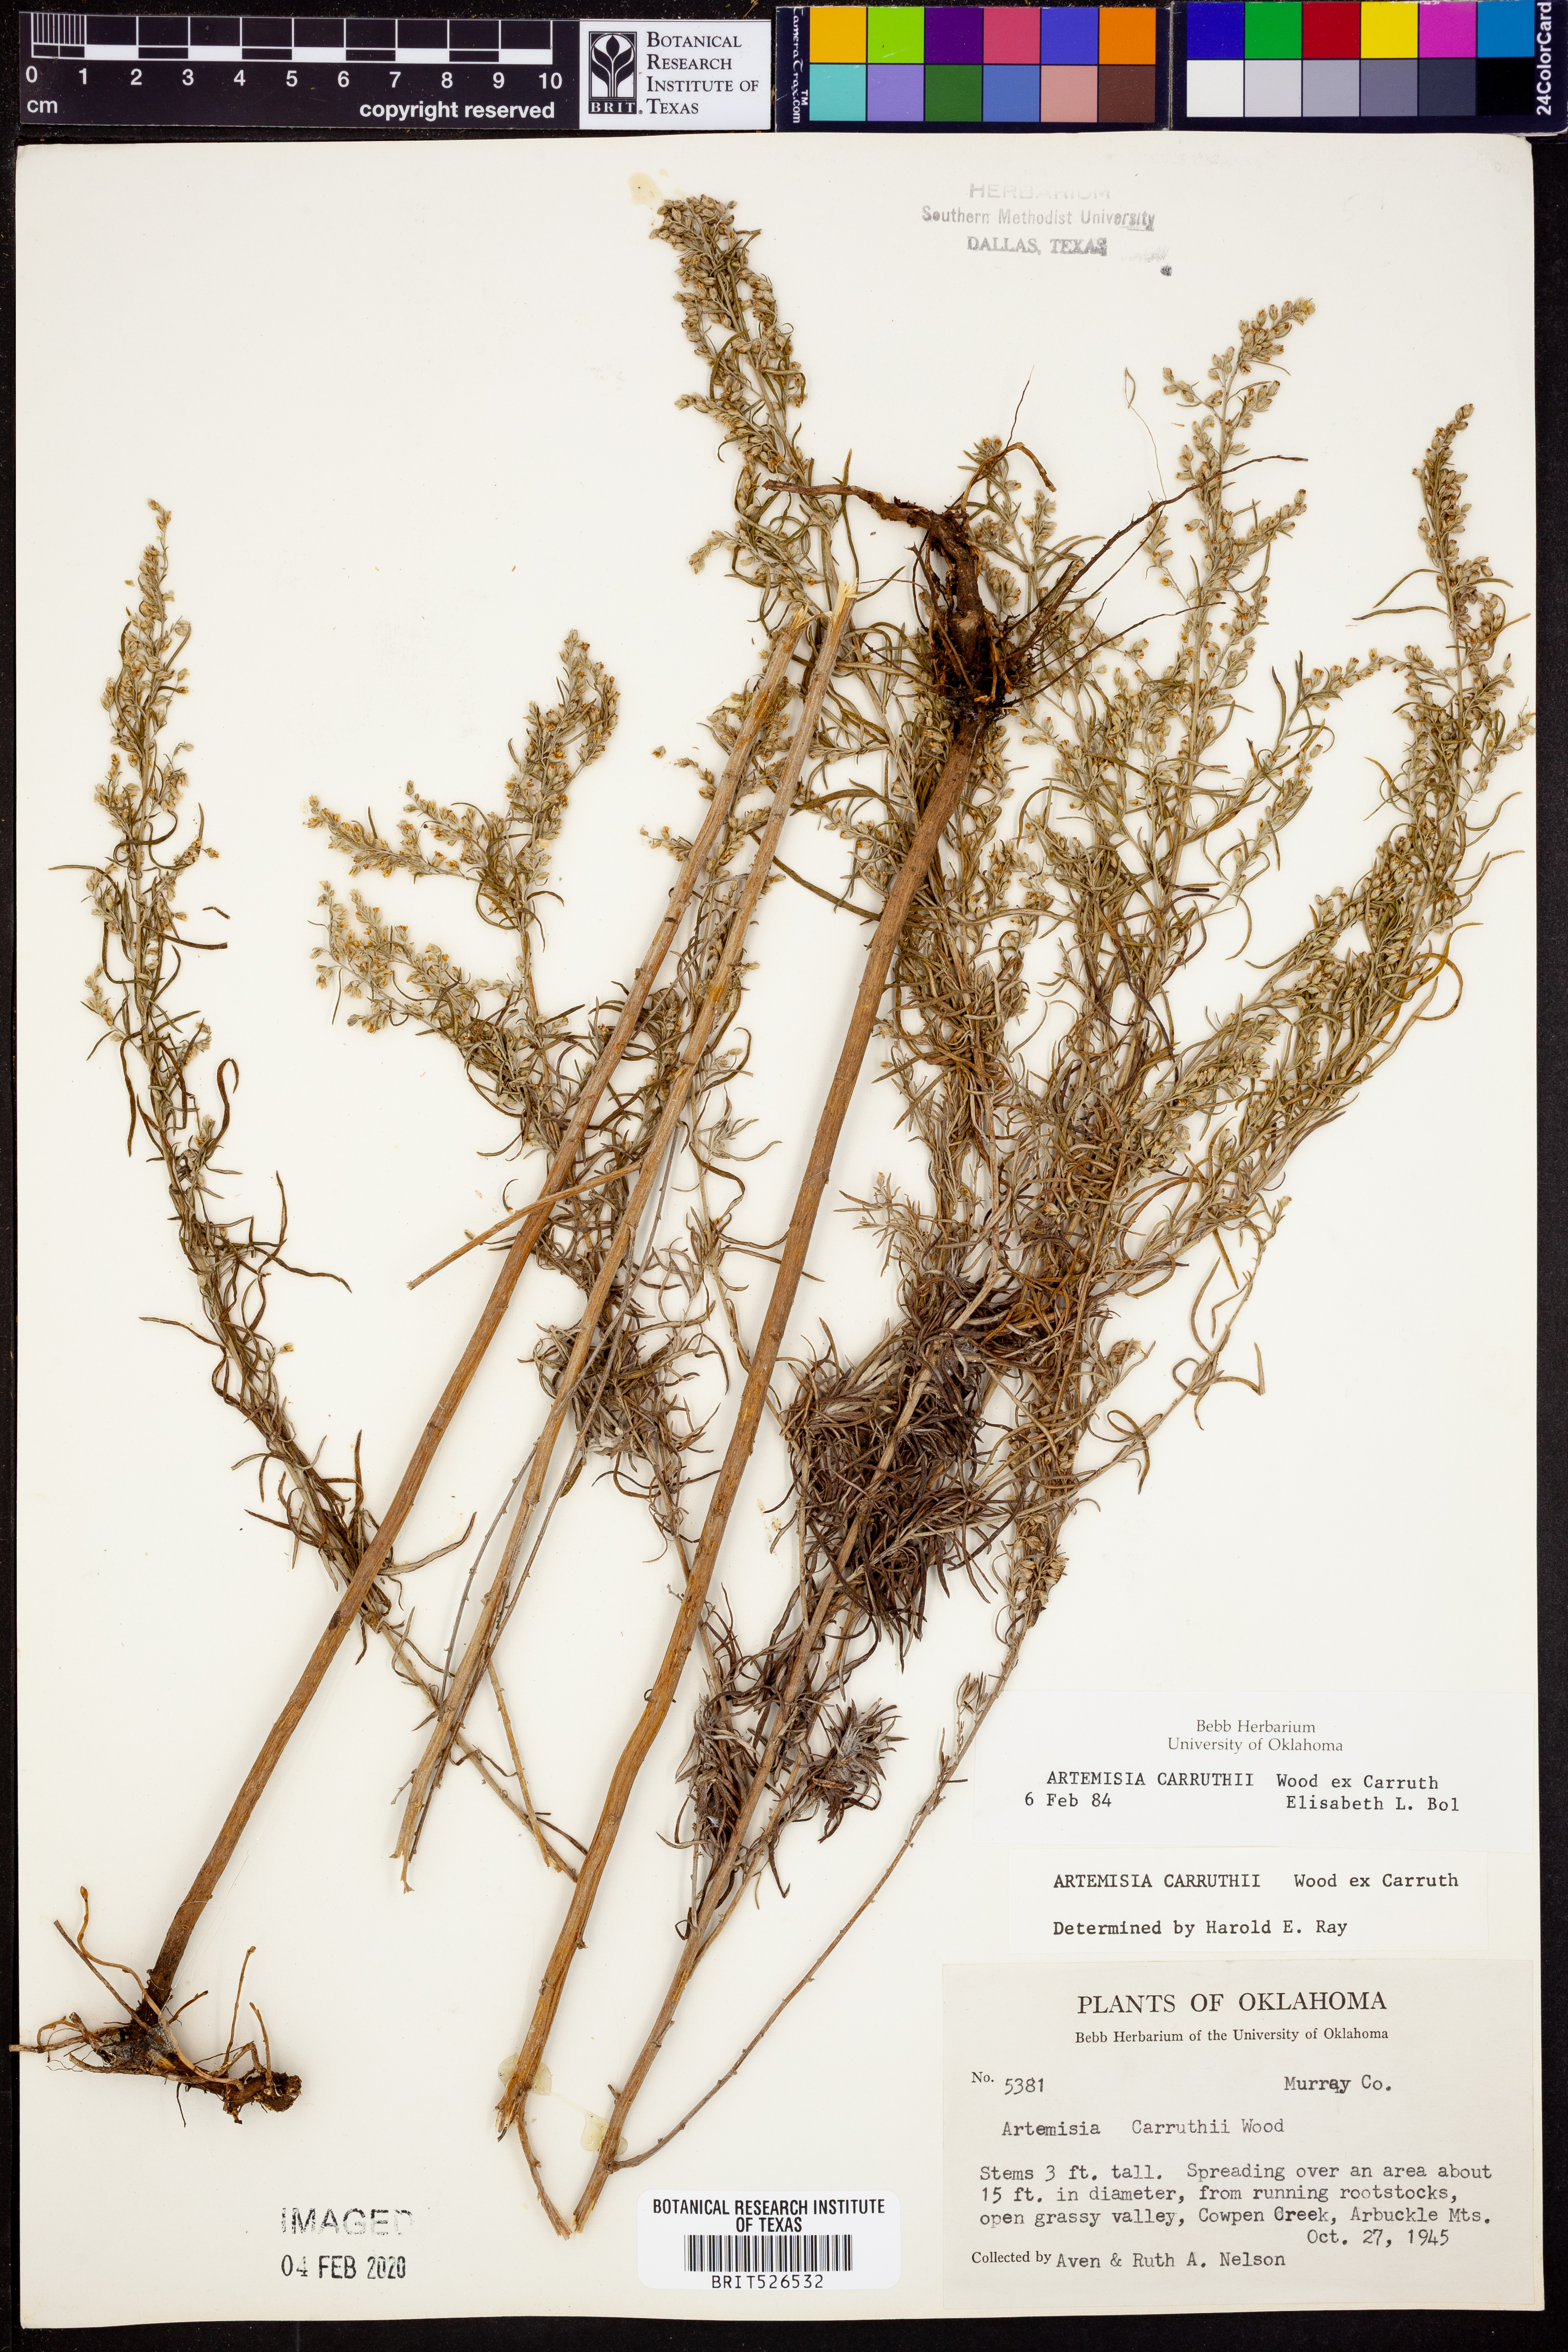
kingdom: Plantae
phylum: Tracheophyta
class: Magnoliopsida
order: Asterales
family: Asteraceae
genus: Artemisia
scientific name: Artemisia carruthii
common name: Carruth wormwood
